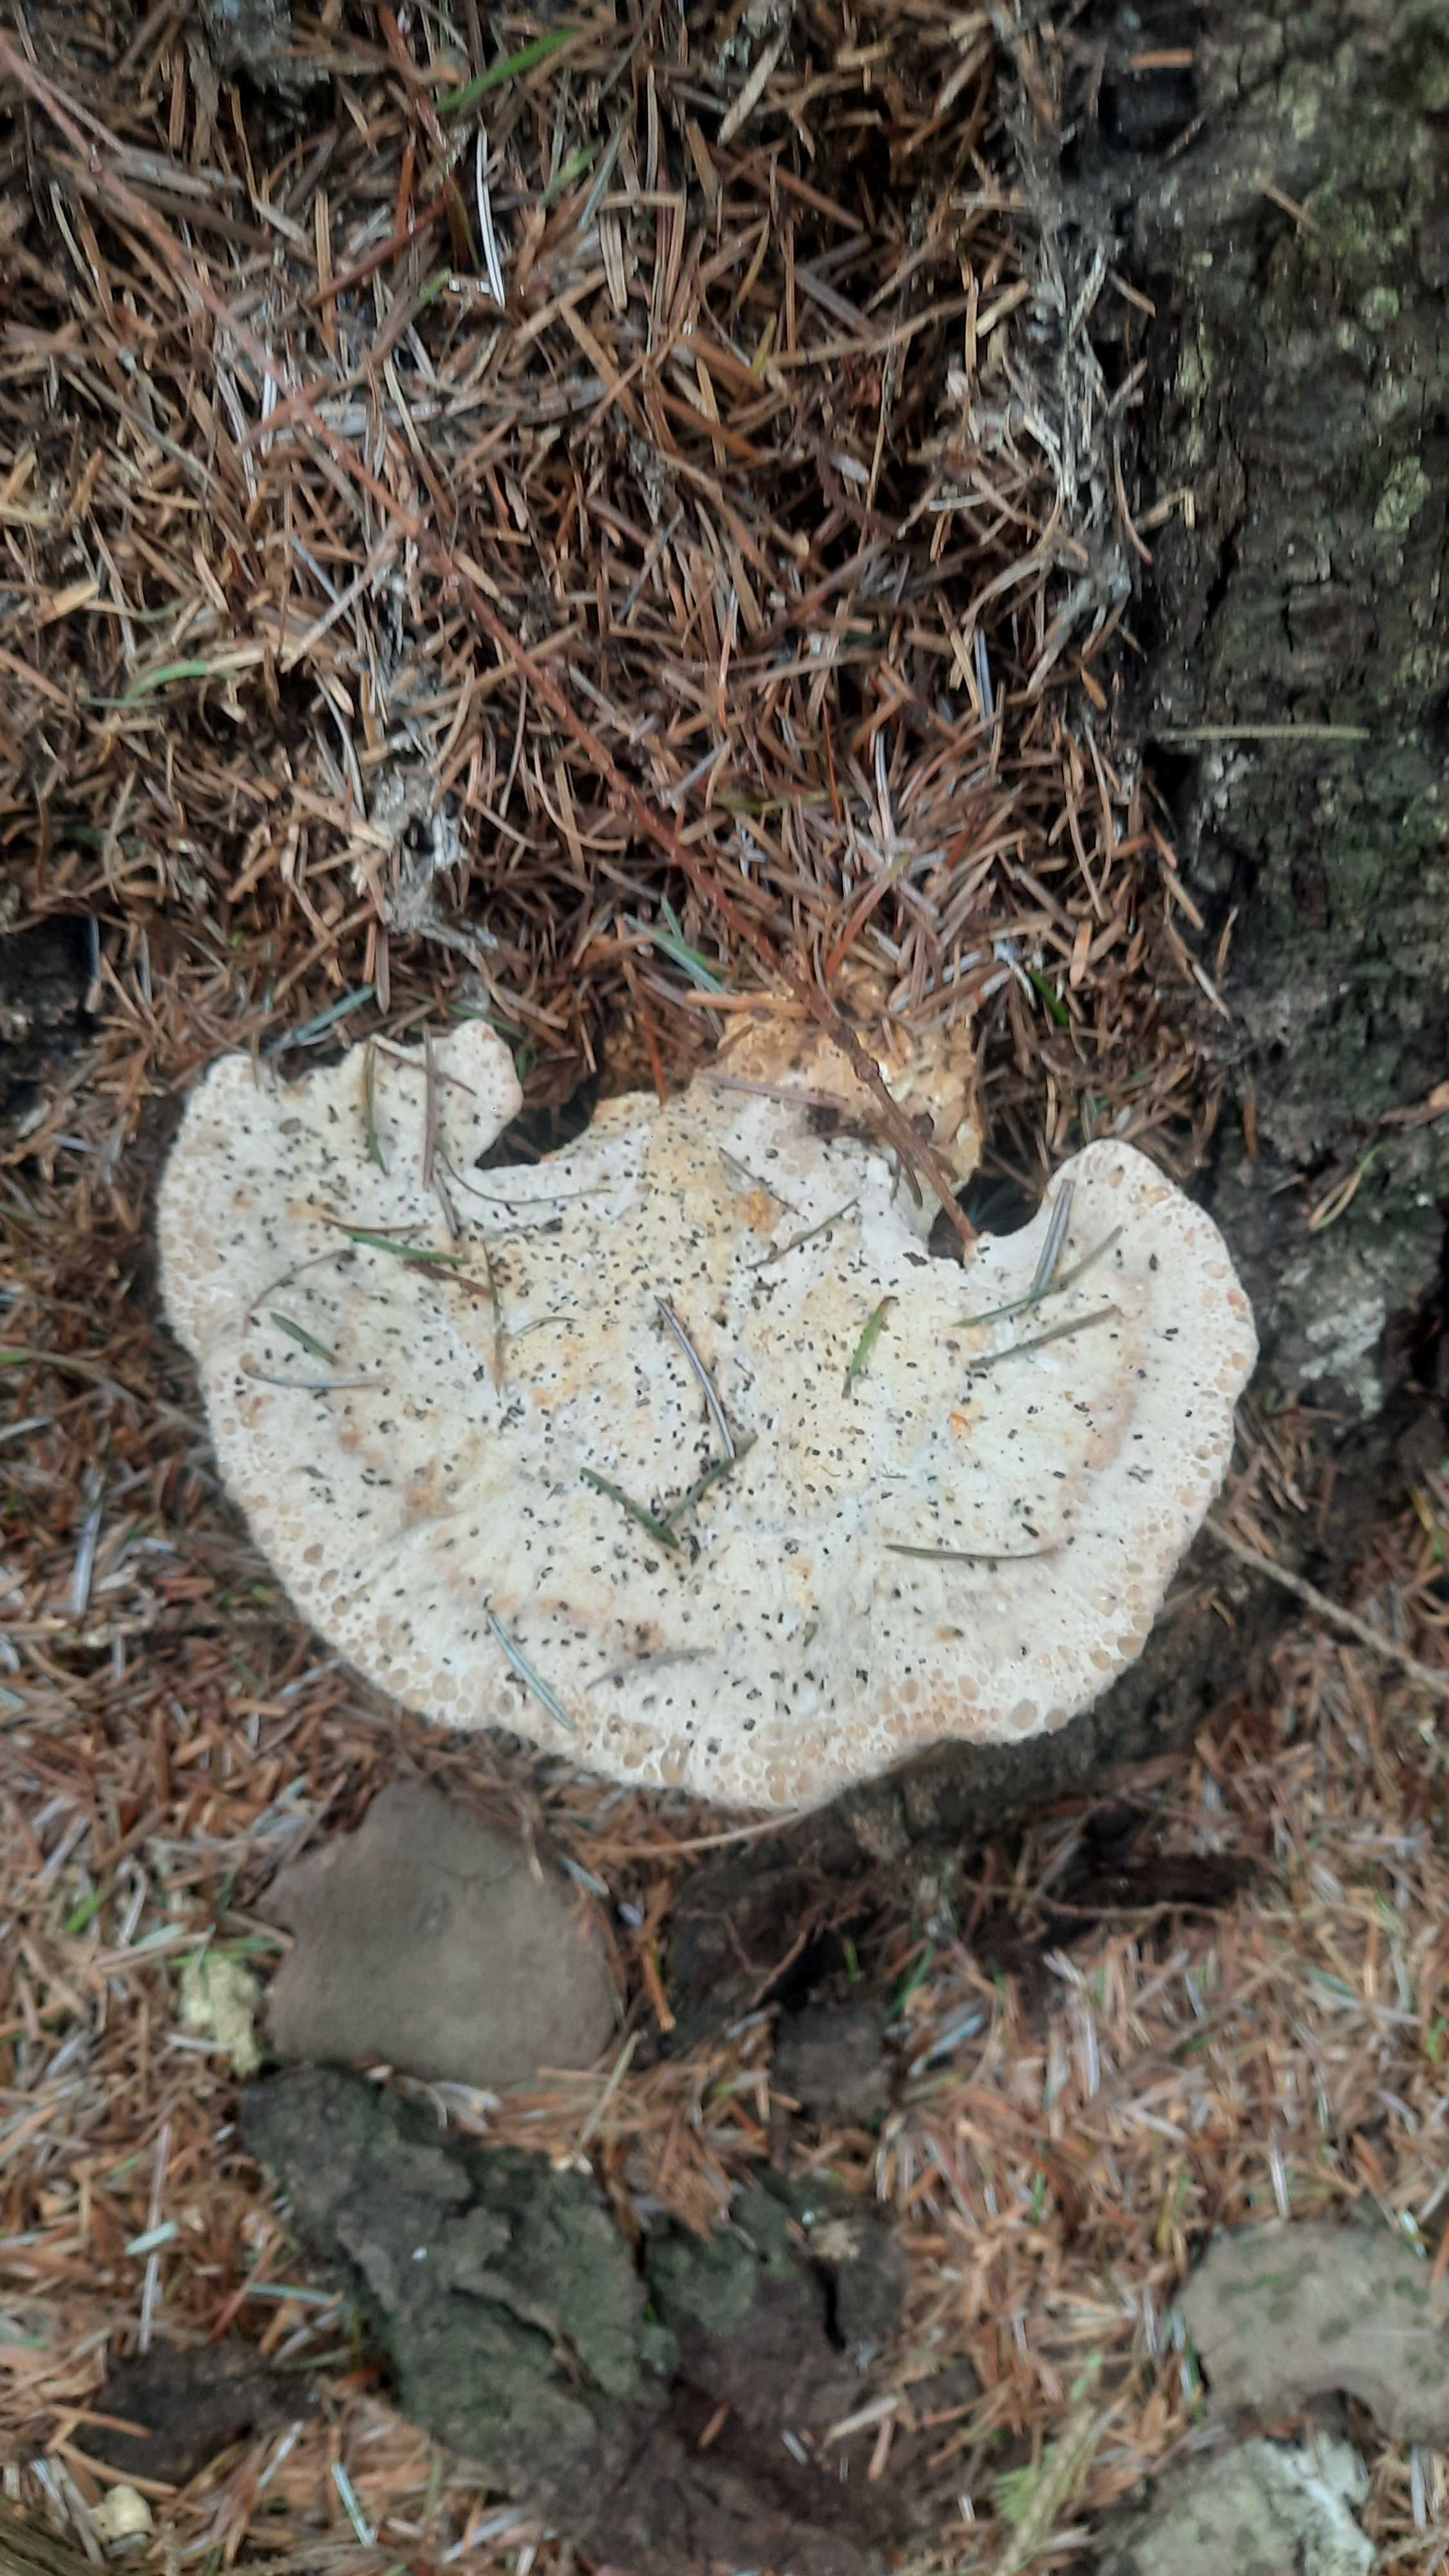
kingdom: Fungi
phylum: Basidiomycota
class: Agaricomycetes
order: Polyporales
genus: Calcipostia
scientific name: Calcipostia guttulata
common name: dråbe-kødporesvamp
